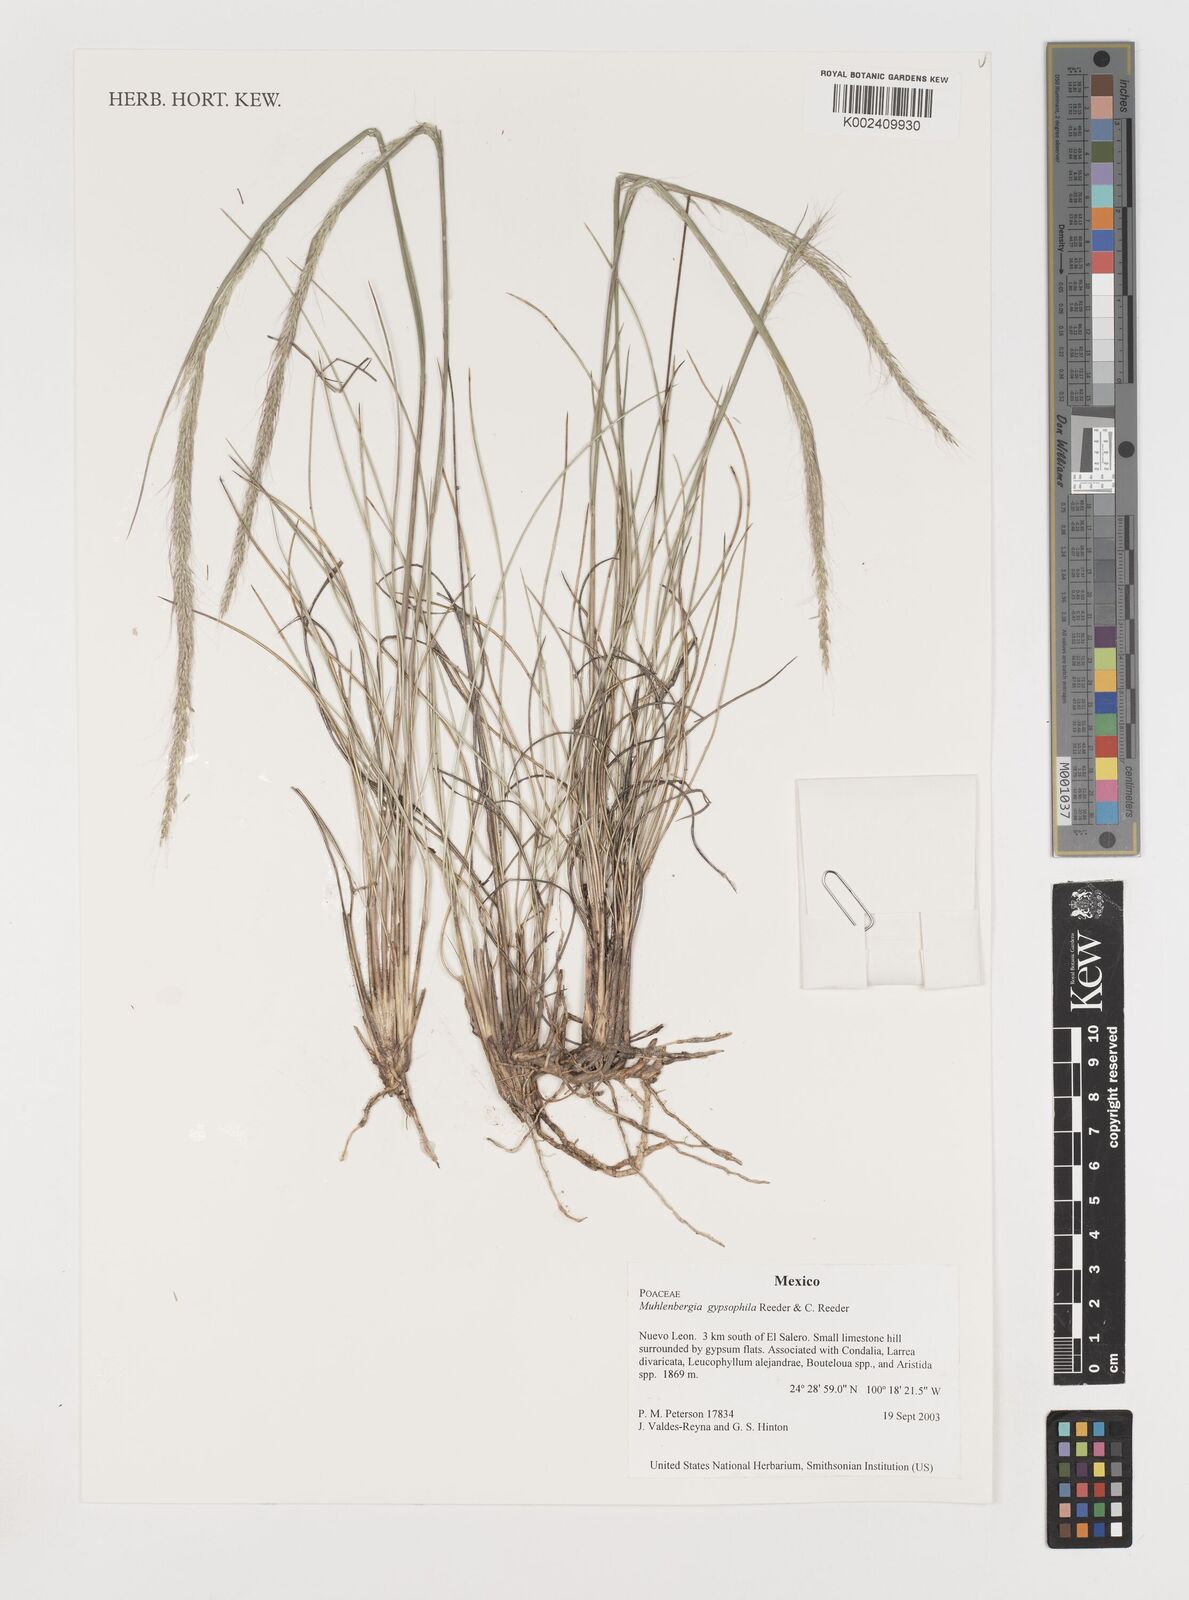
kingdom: Plantae
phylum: Tracheophyta
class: Liliopsida
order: Poales
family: Poaceae
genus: Muhlenbergia
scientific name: Muhlenbergia gypsophila
